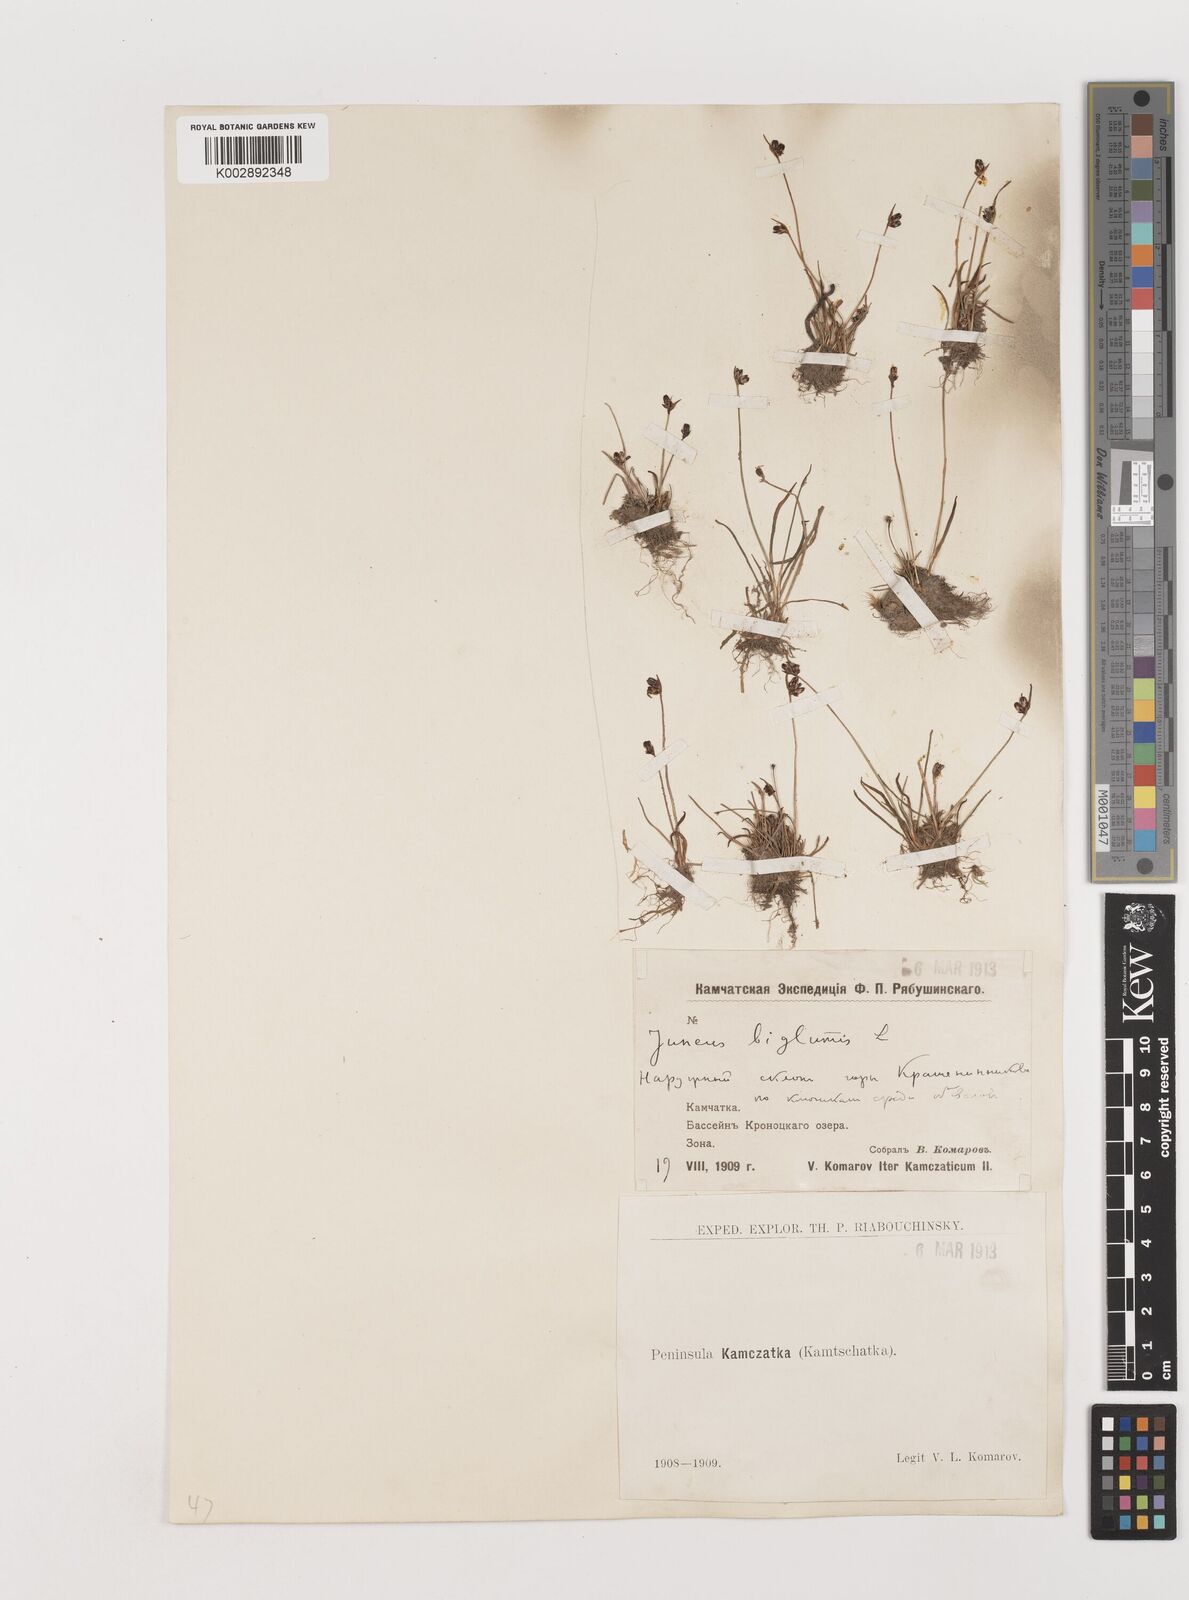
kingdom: Plantae
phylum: Tracheophyta
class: Liliopsida
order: Poales
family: Juncaceae
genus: Juncus
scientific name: Juncus biglumis
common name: Two-flowered rush
